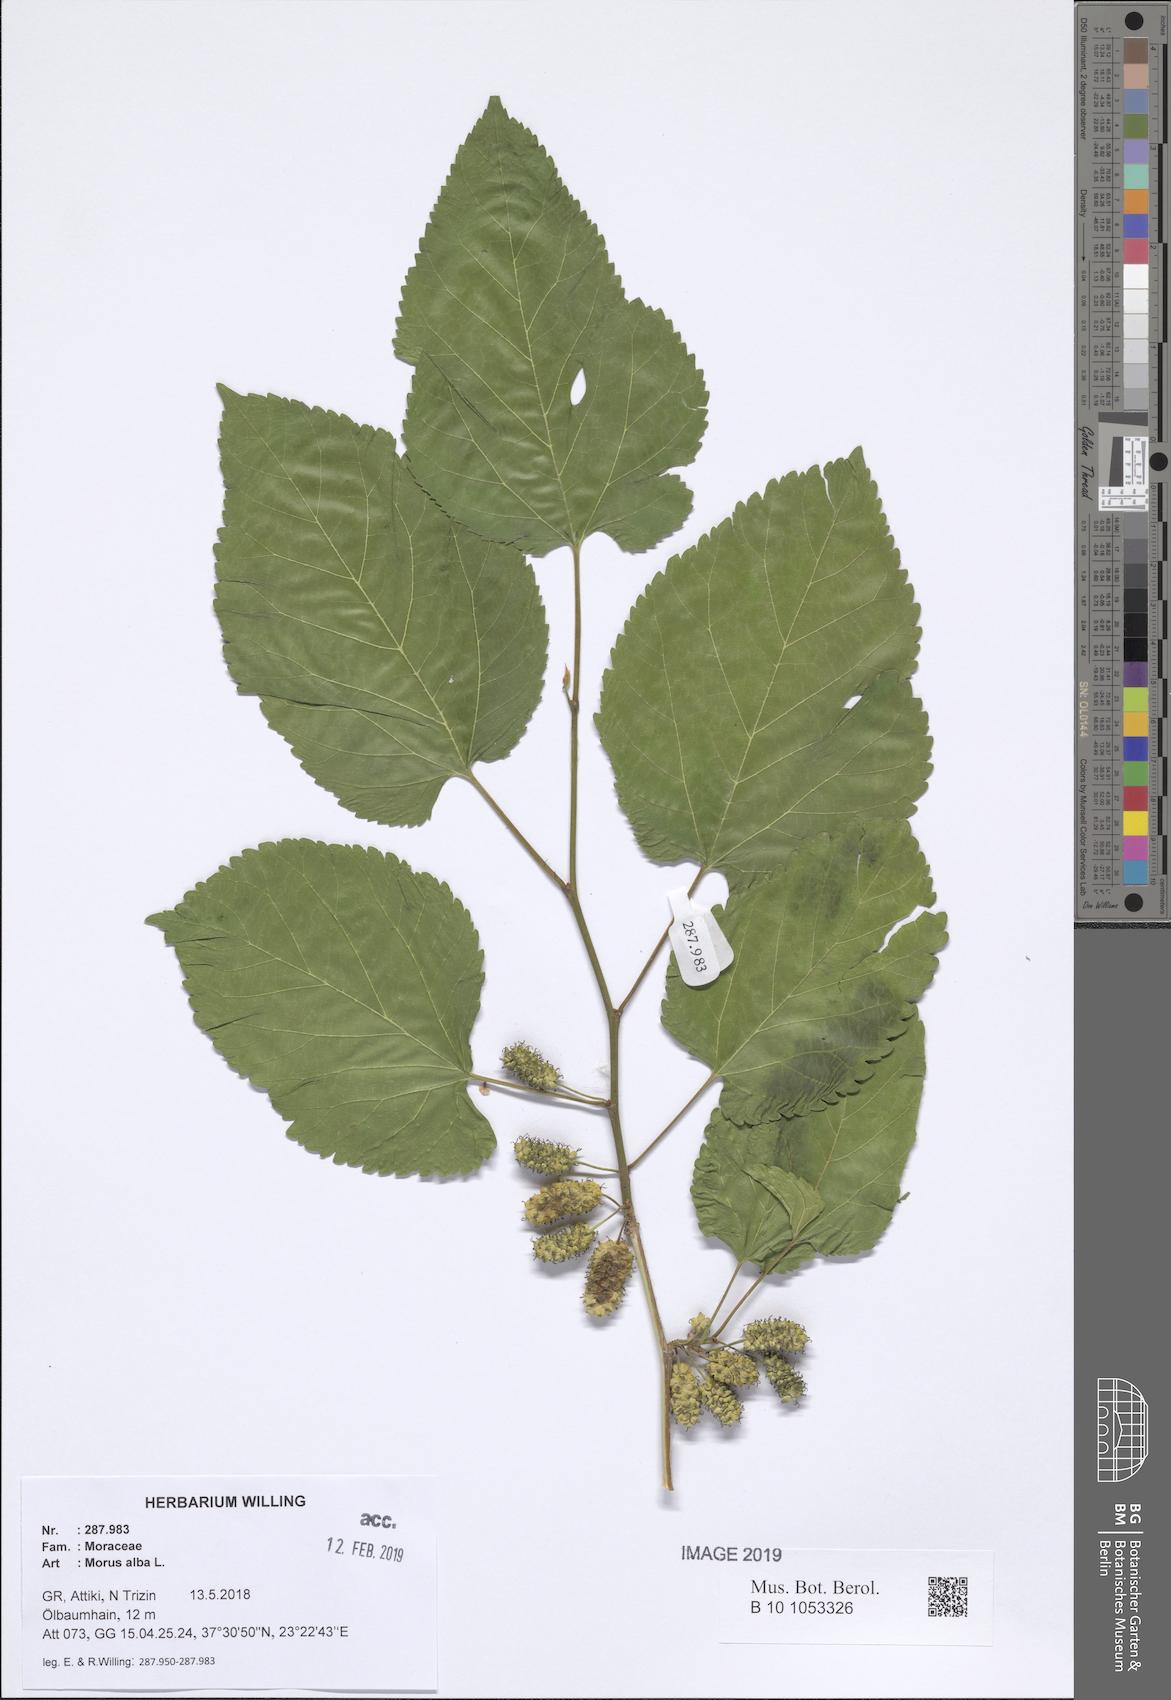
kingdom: Plantae
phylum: Tracheophyta
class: Magnoliopsida
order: Rosales
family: Moraceae
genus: Morus
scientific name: Morus alba
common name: White mulberry
